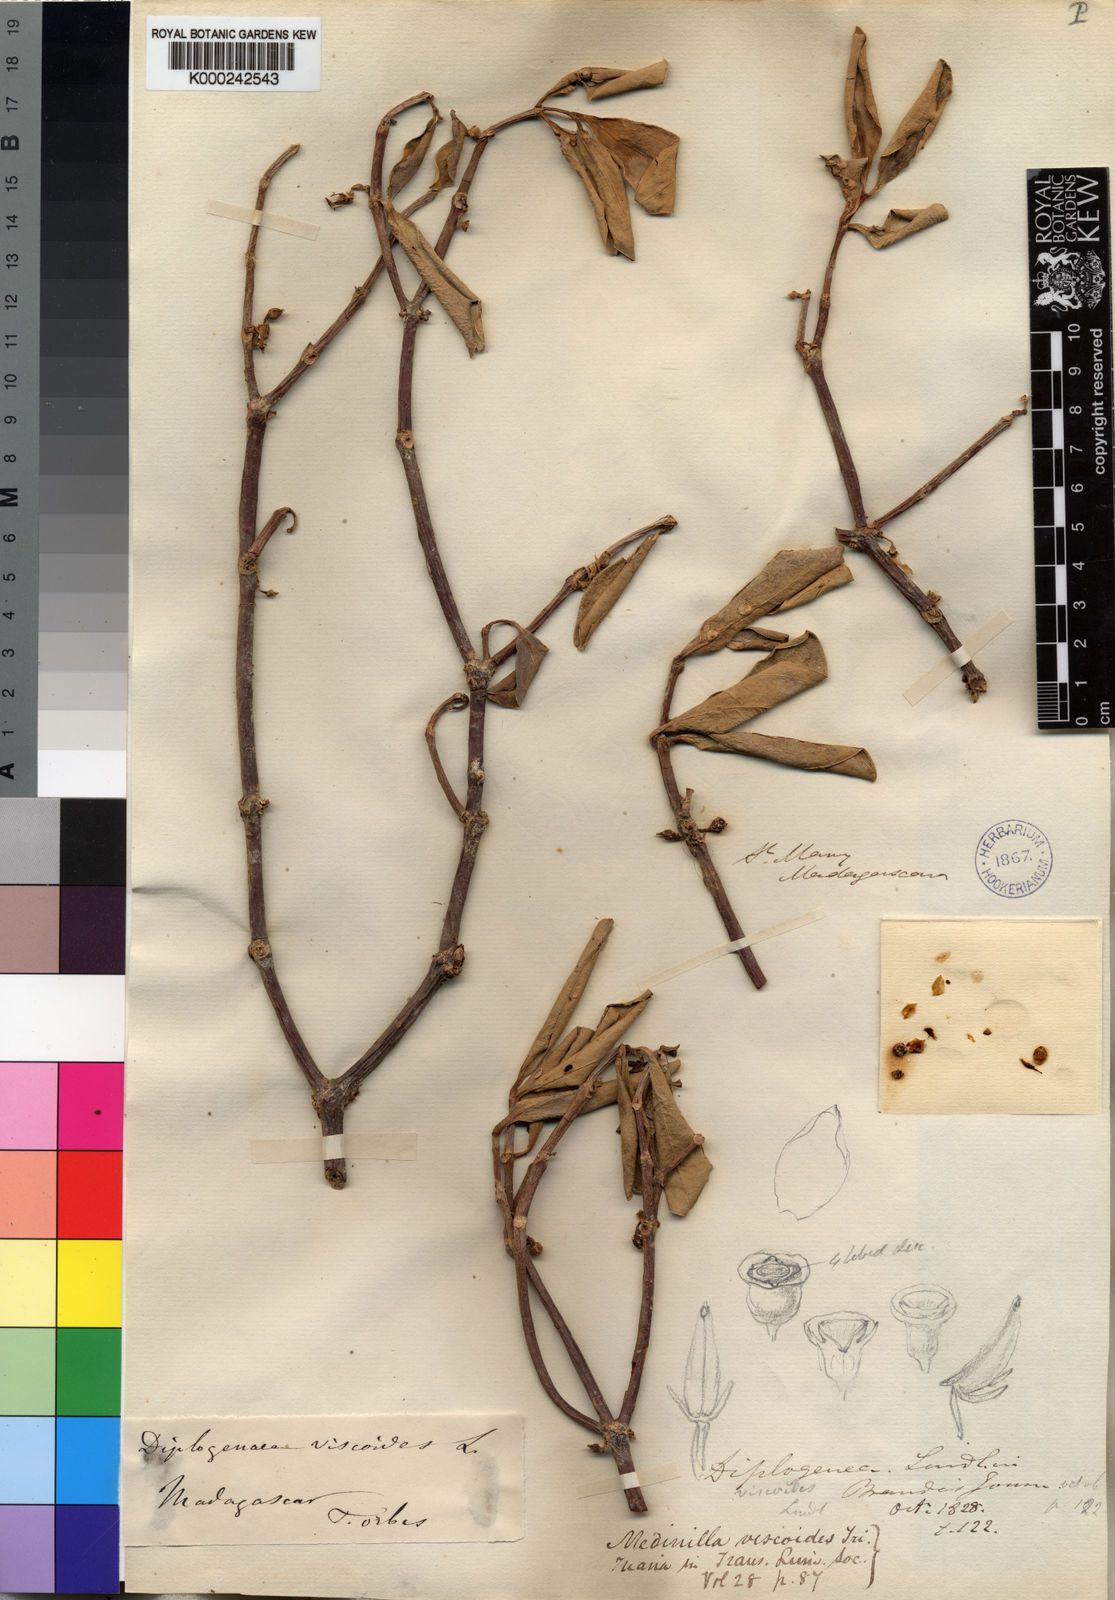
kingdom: Plantae
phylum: Tracheophyta
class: Magnoliopsida
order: Myrtales
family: Melastomataceae
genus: Medinilla
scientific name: Medinilla viscoides
